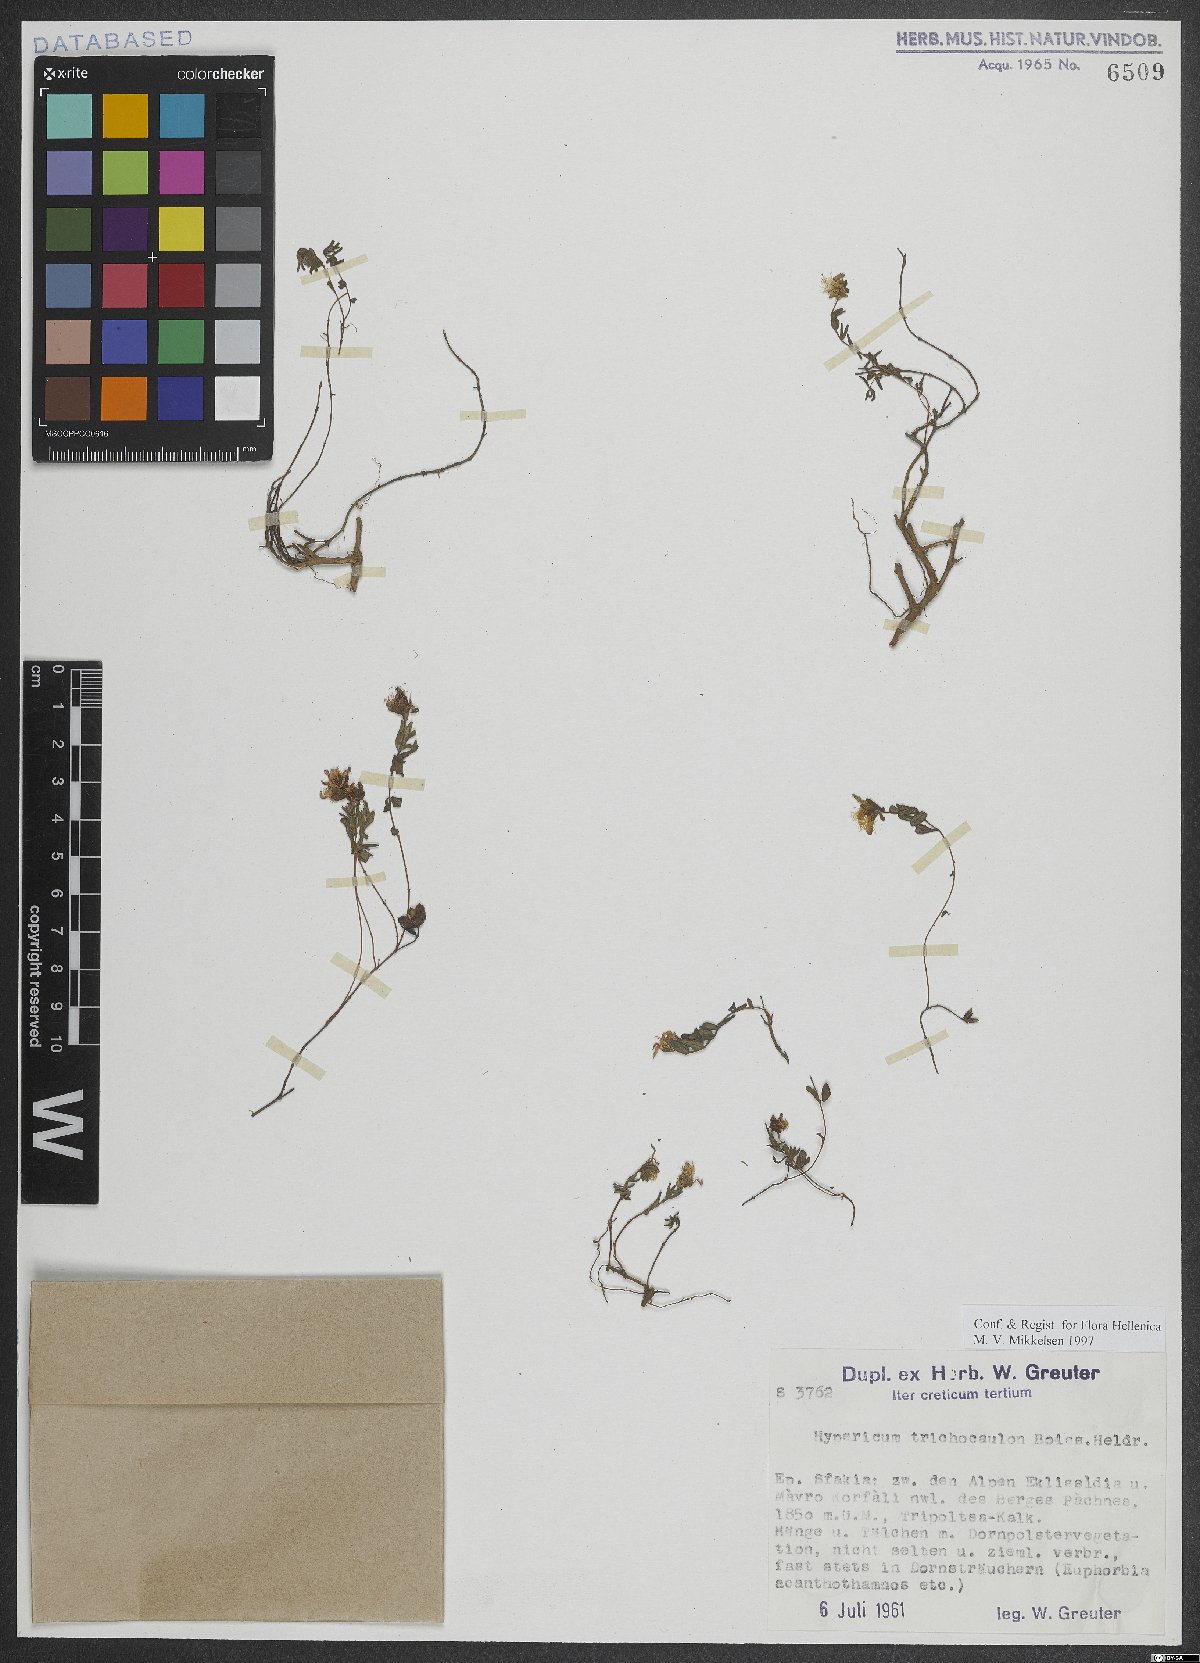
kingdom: Plantae
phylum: Tracheophyta
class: Magnoliopsida
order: Malpighiales
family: Hypericaceae
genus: Hypericum
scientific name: Hypericum trichocaulon
